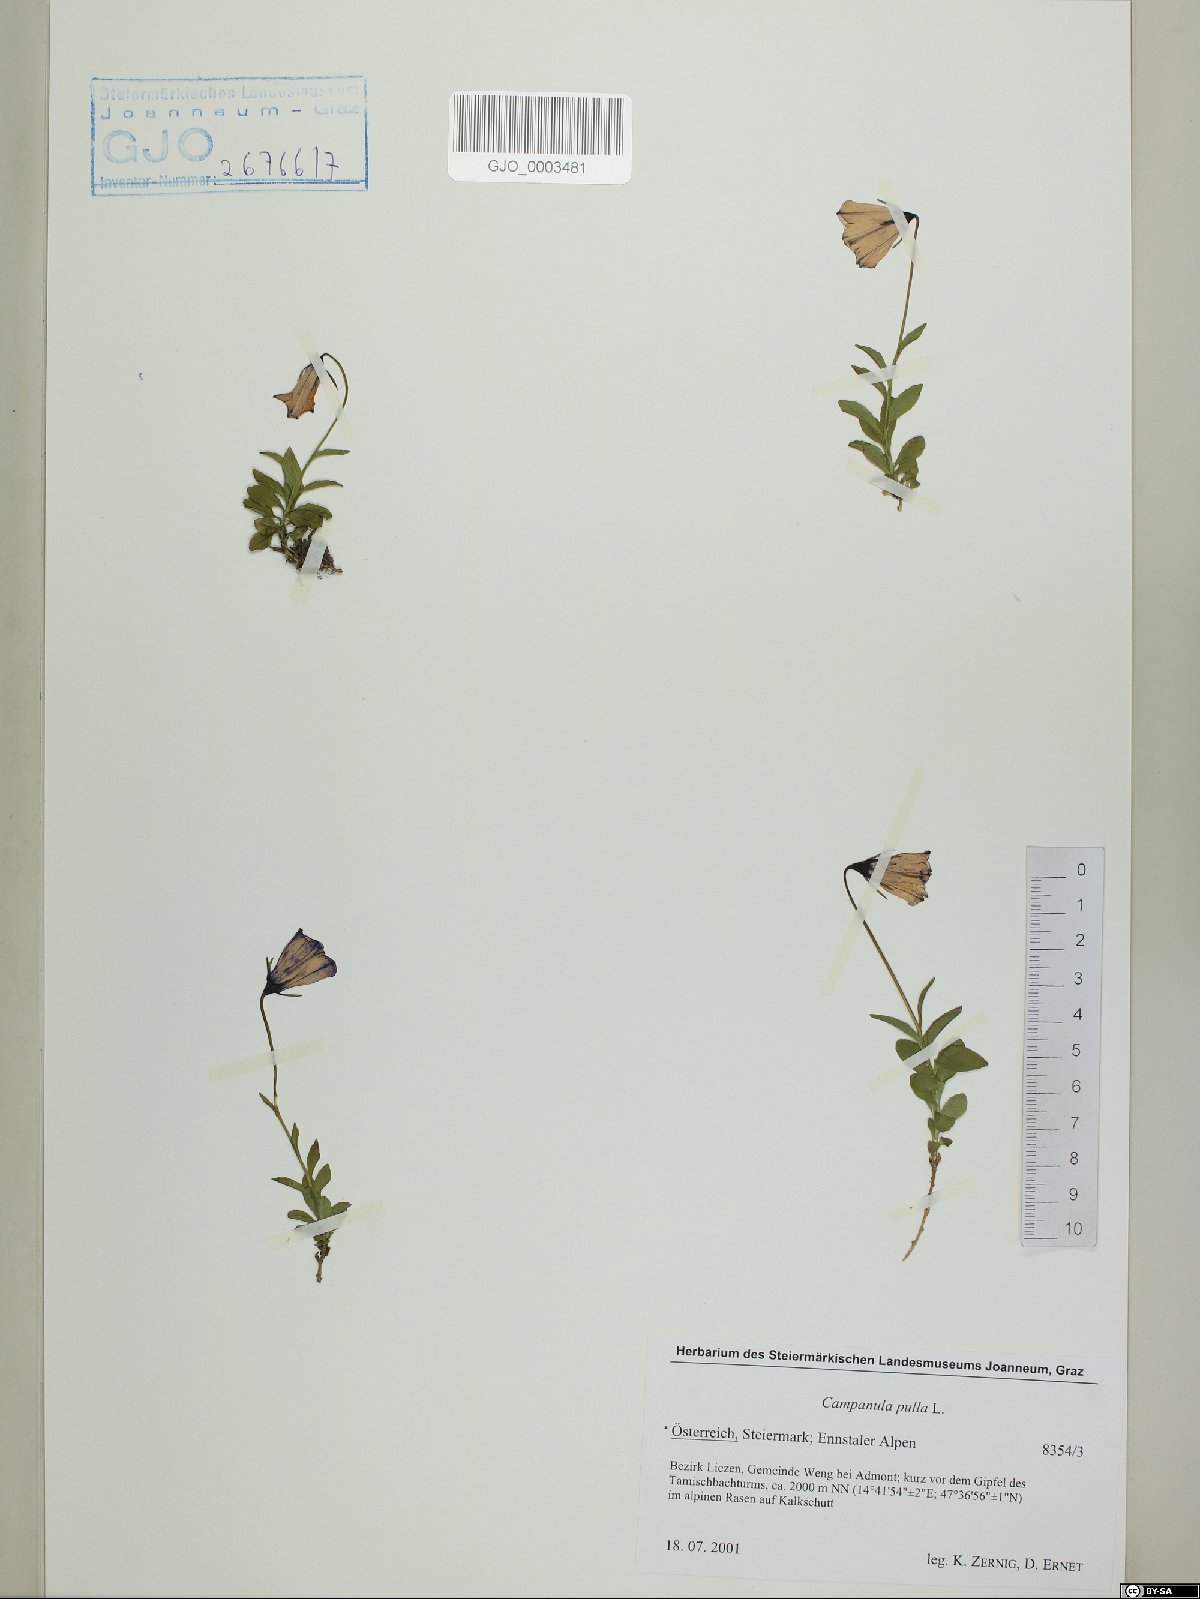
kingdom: Plantae
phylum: Tracheophyta
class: Magnoliopsida
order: Asterales
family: Campanulaceae
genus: Campanula
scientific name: Campanula pulla
